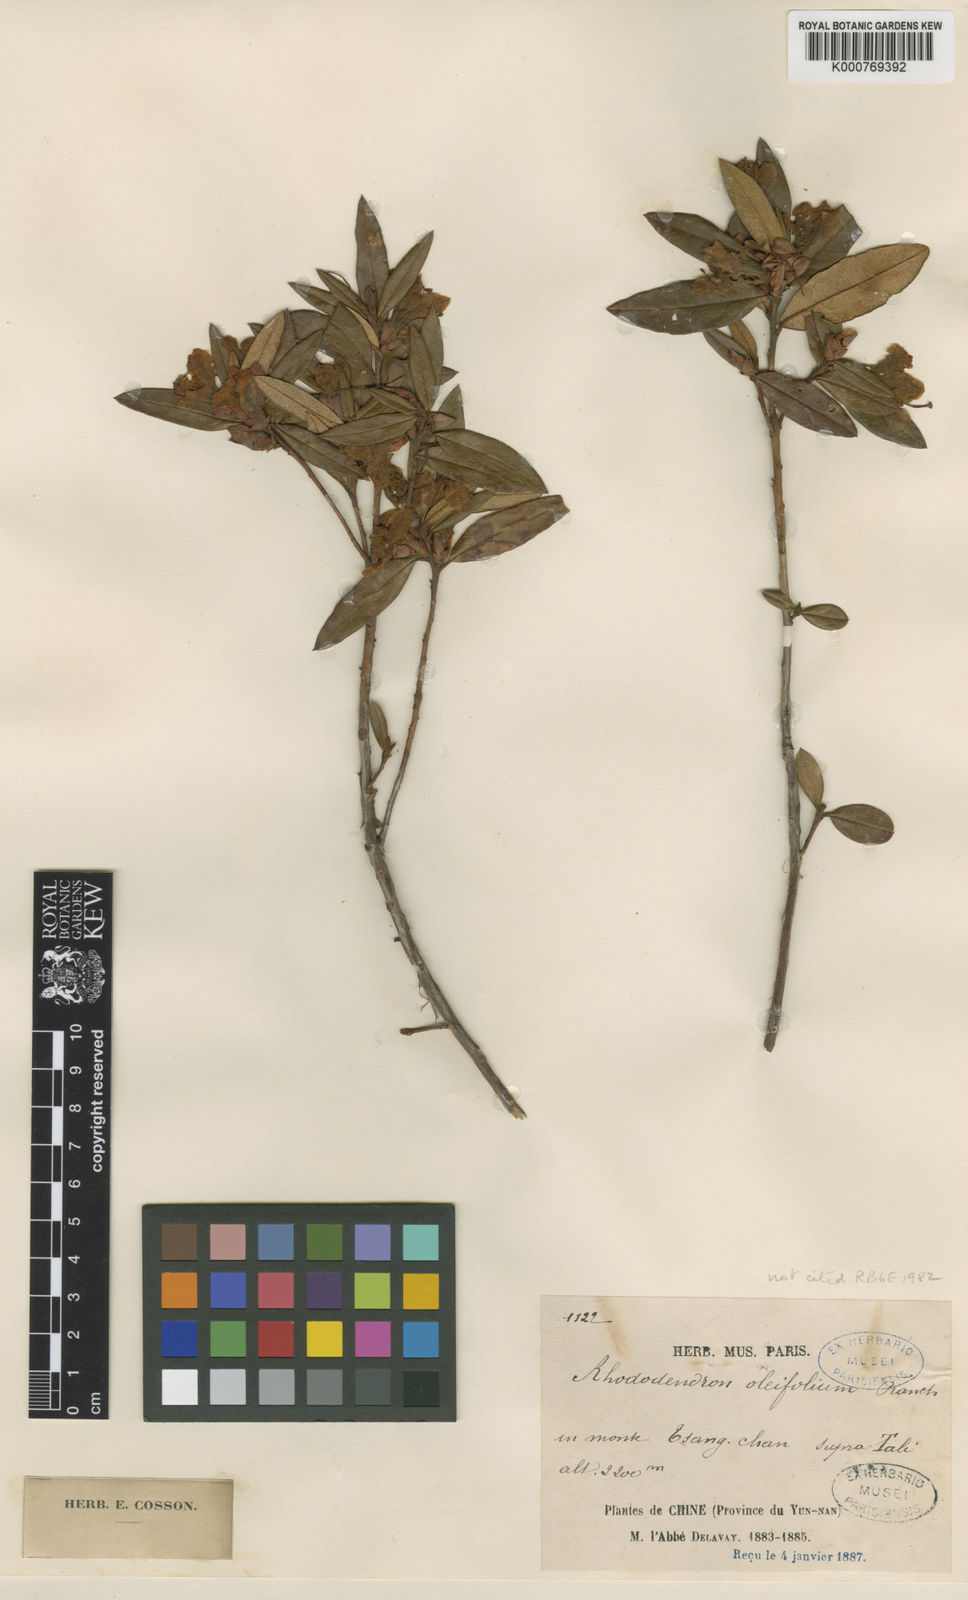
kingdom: Plantae
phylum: Tracheophyta
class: Magnoliopsida
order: Ericales
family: Ericaceae
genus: Rhododendron
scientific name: Rhododendron virgatum
